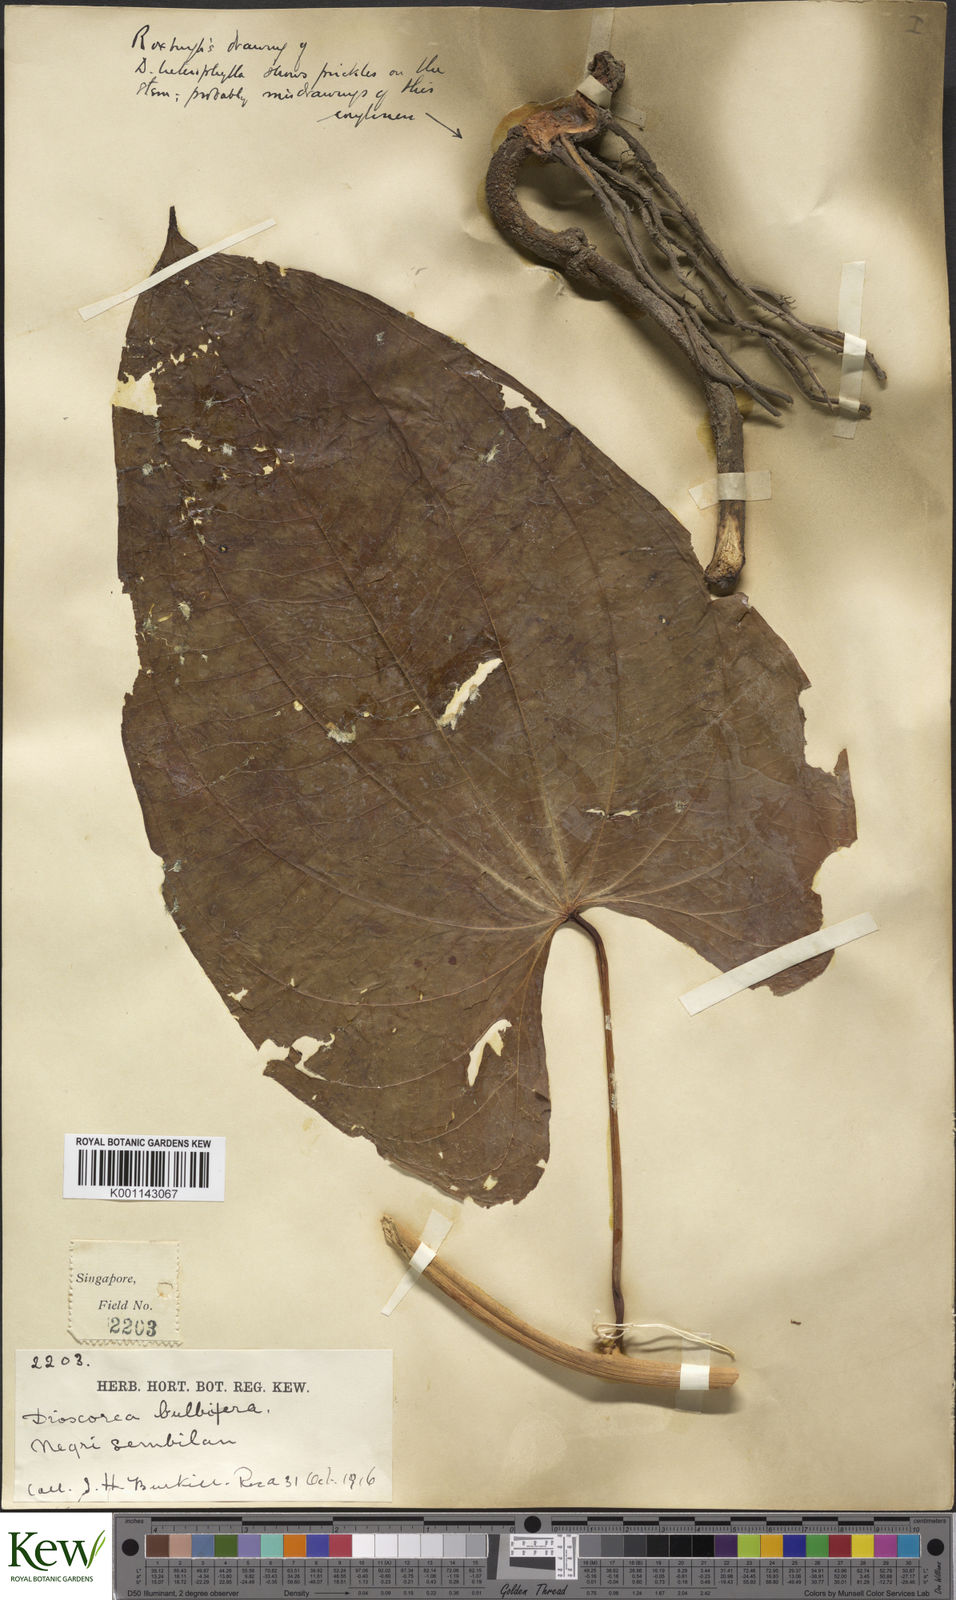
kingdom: Plantae
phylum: Tracheophyta
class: Liliopsida
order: Dioscoreales
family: Dioscoreaceae
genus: Dioscorea
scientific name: Dioscorea bulbifera
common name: Air yam
